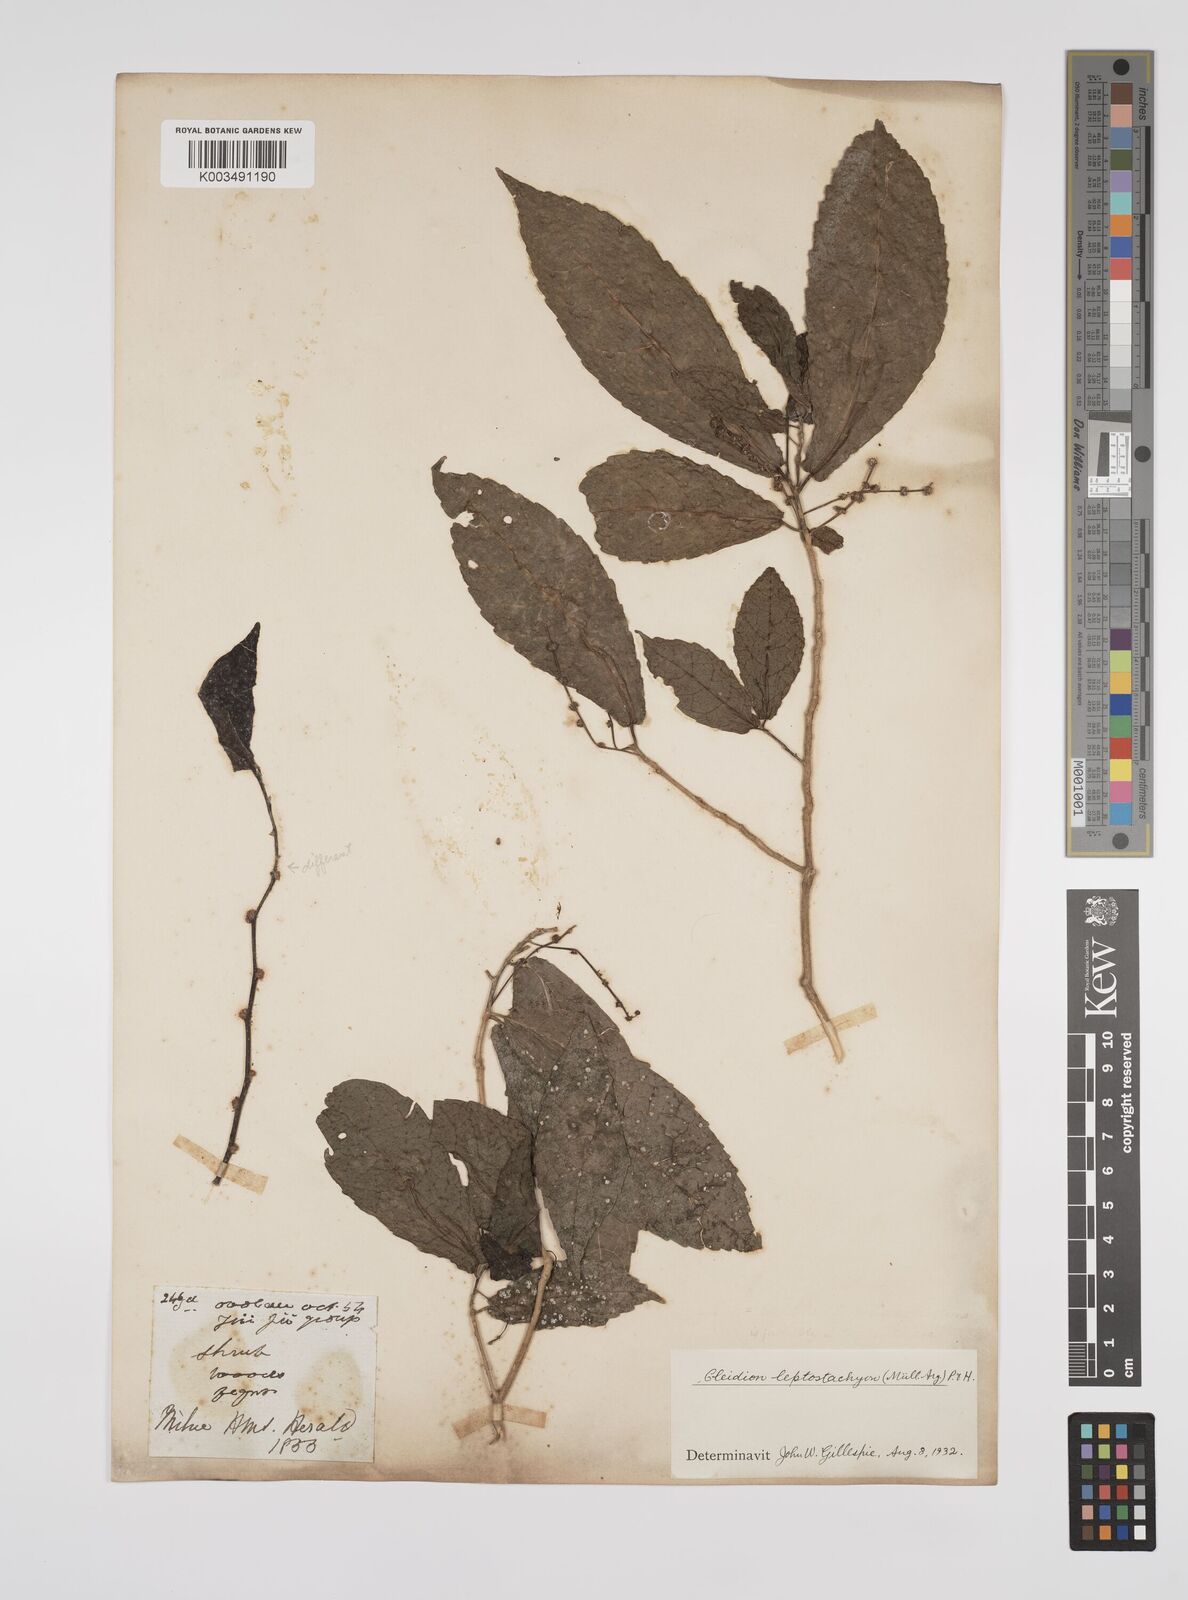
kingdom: Plantae
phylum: Tracheophyta
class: Magnoliopsida
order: Malpighiales
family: Euphorbiaceae
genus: Cleidion
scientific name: Cleidion leptostachyum
